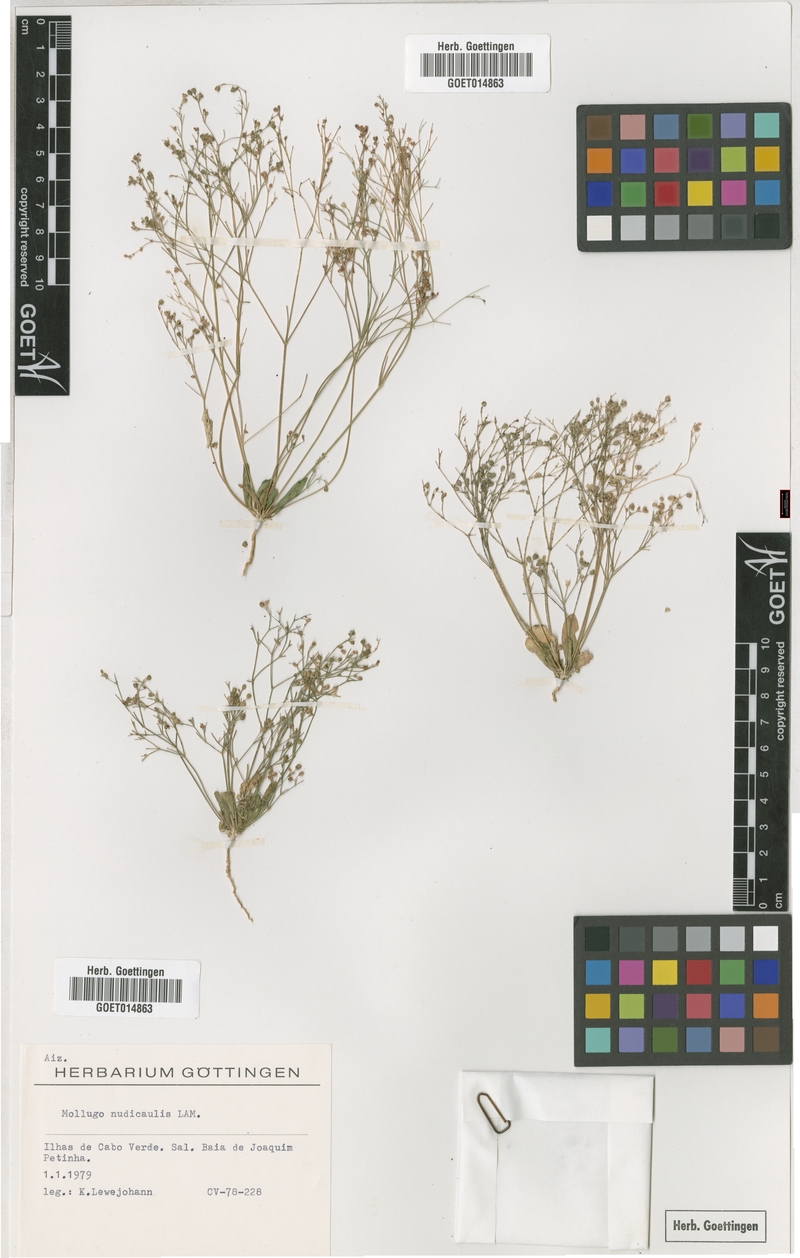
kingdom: Plantae
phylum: Tracheophyta
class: Magnoliopsida
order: Caryophyllales
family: Molluginaceae
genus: Paramollugo
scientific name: Paramollugo nudicaulis
